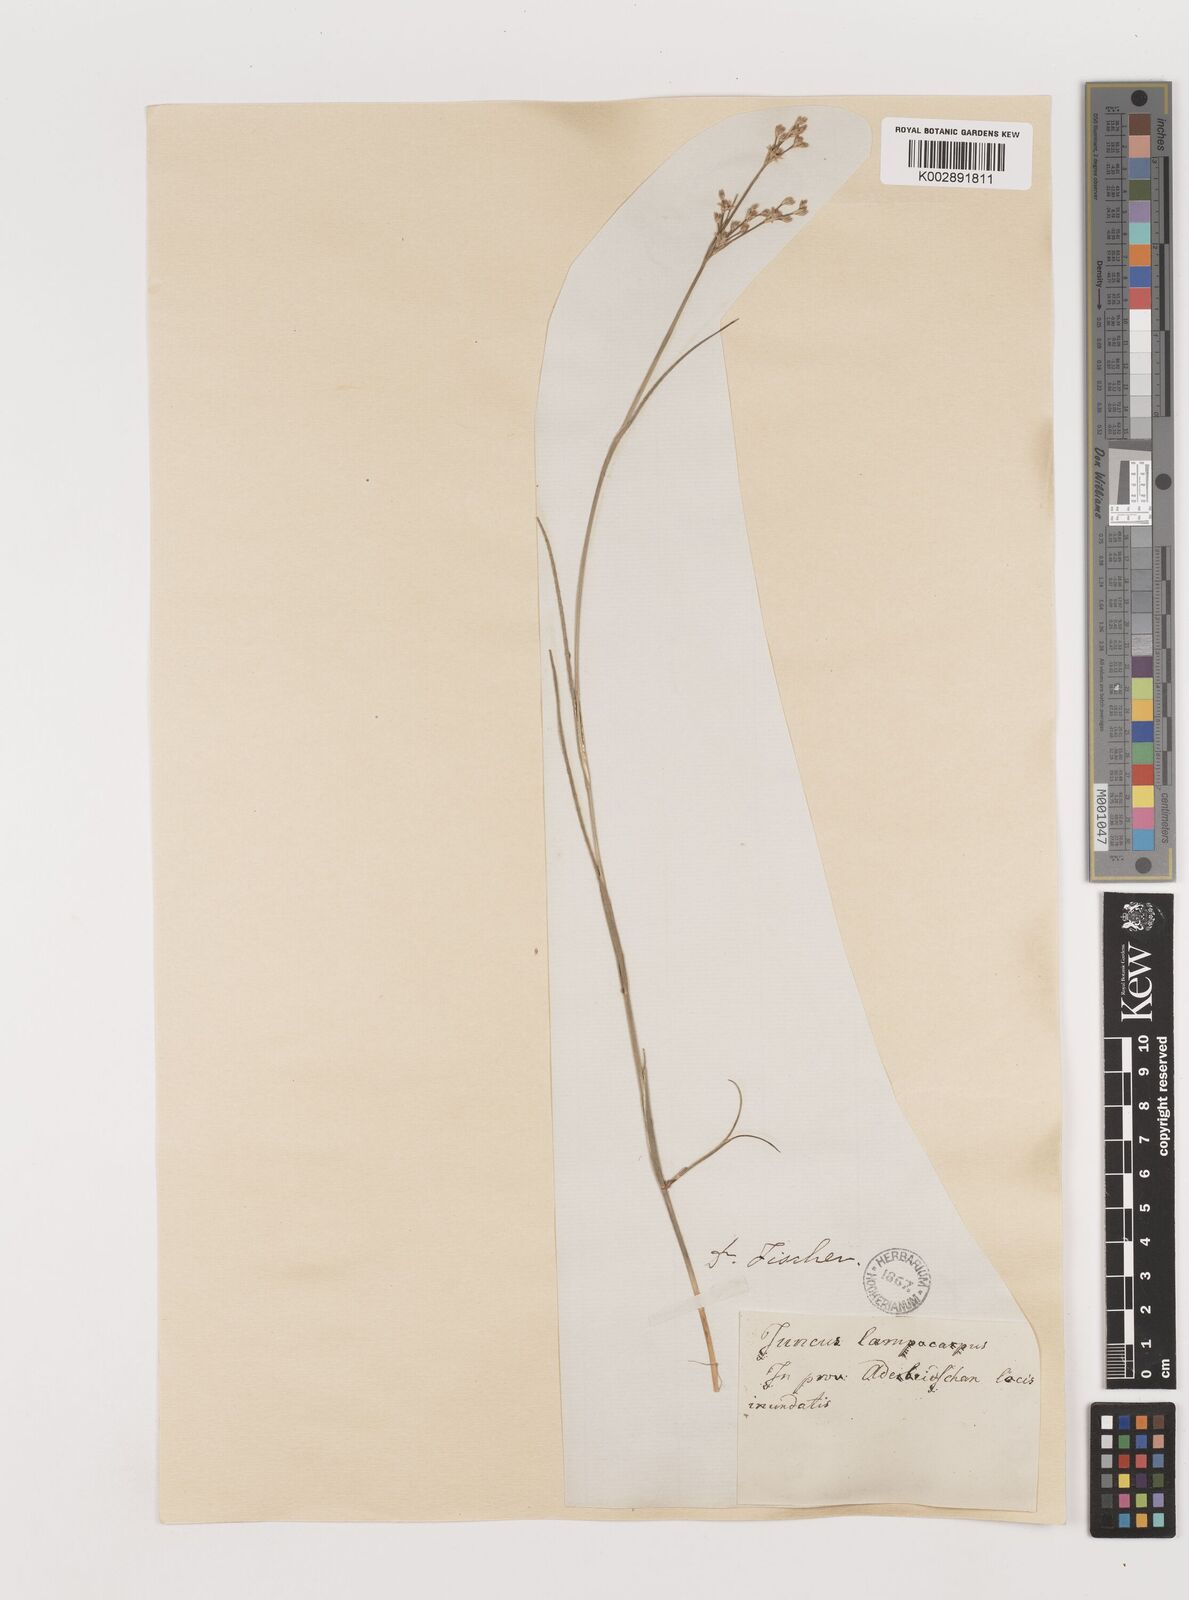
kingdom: Plantae
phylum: Tracheophyta
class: Liliopsida
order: Poales
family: Juncaceae
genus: Juncus
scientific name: Juncus articulatus
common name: Jointed rush
